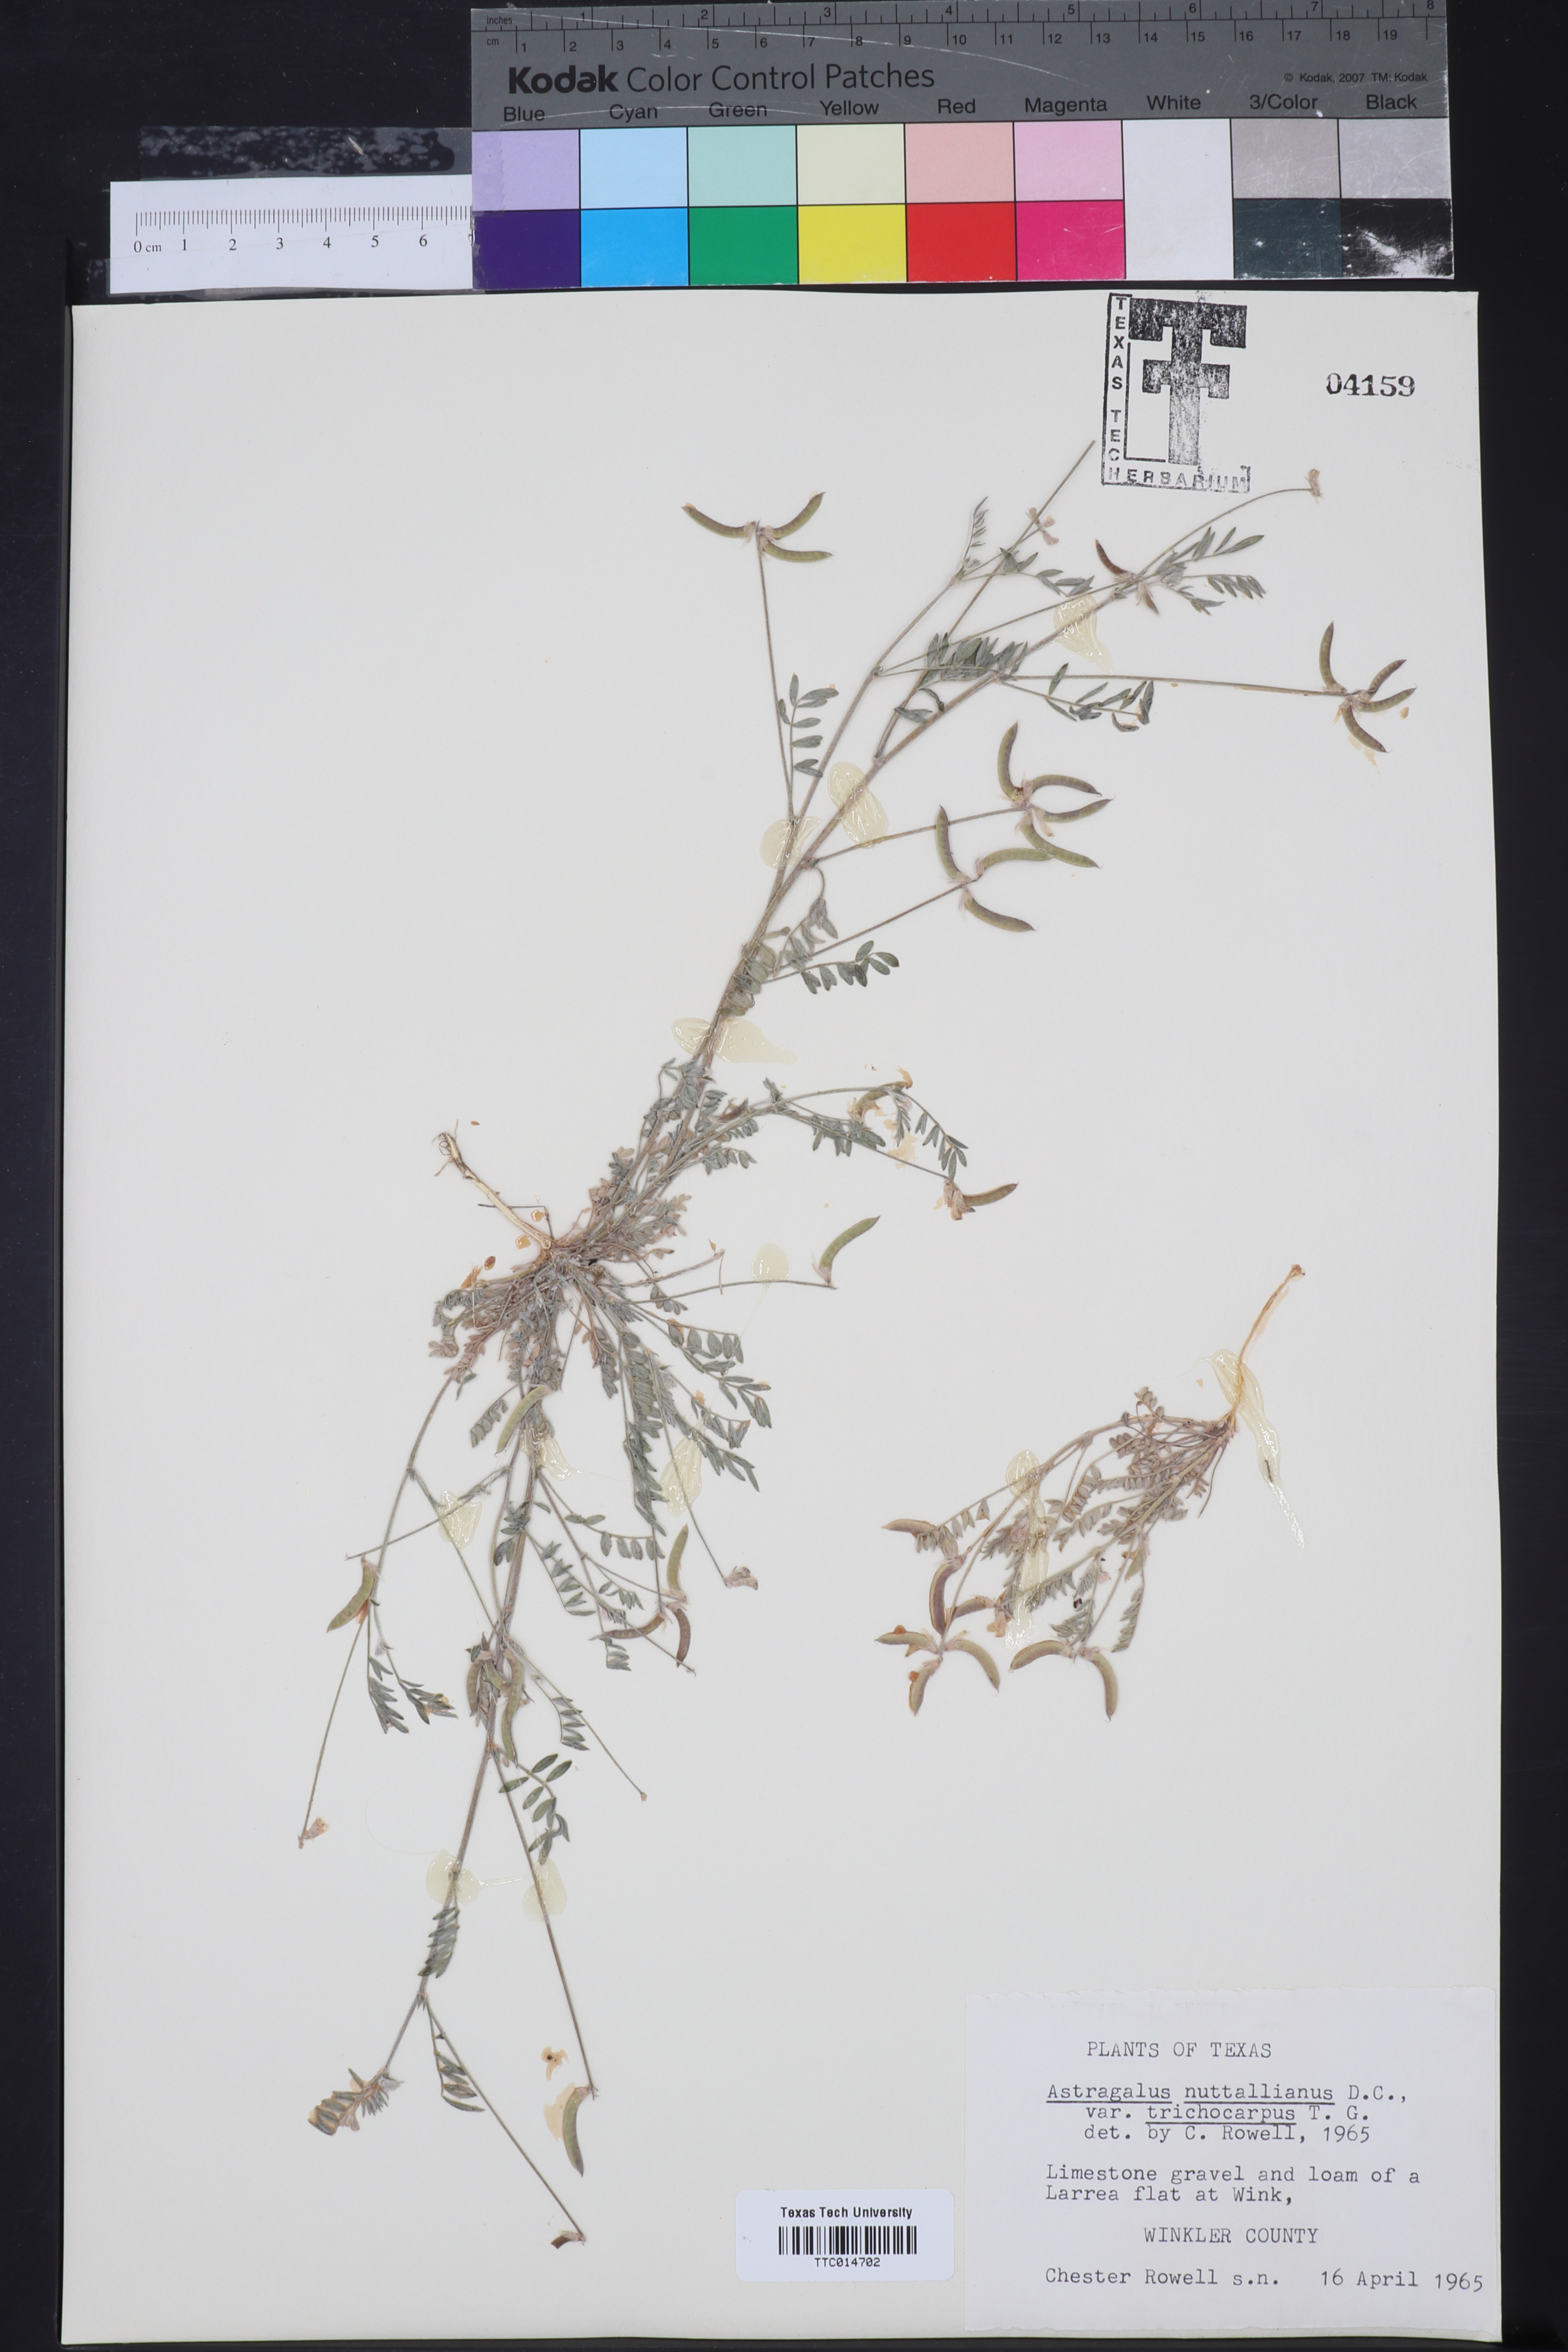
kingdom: Plantae
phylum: Tracheophyta
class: Magnoliopsida
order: Fabales
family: Fabaceae
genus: Astragalus
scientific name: Astragalus nuttallianus
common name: Smallflowered milkvetch
